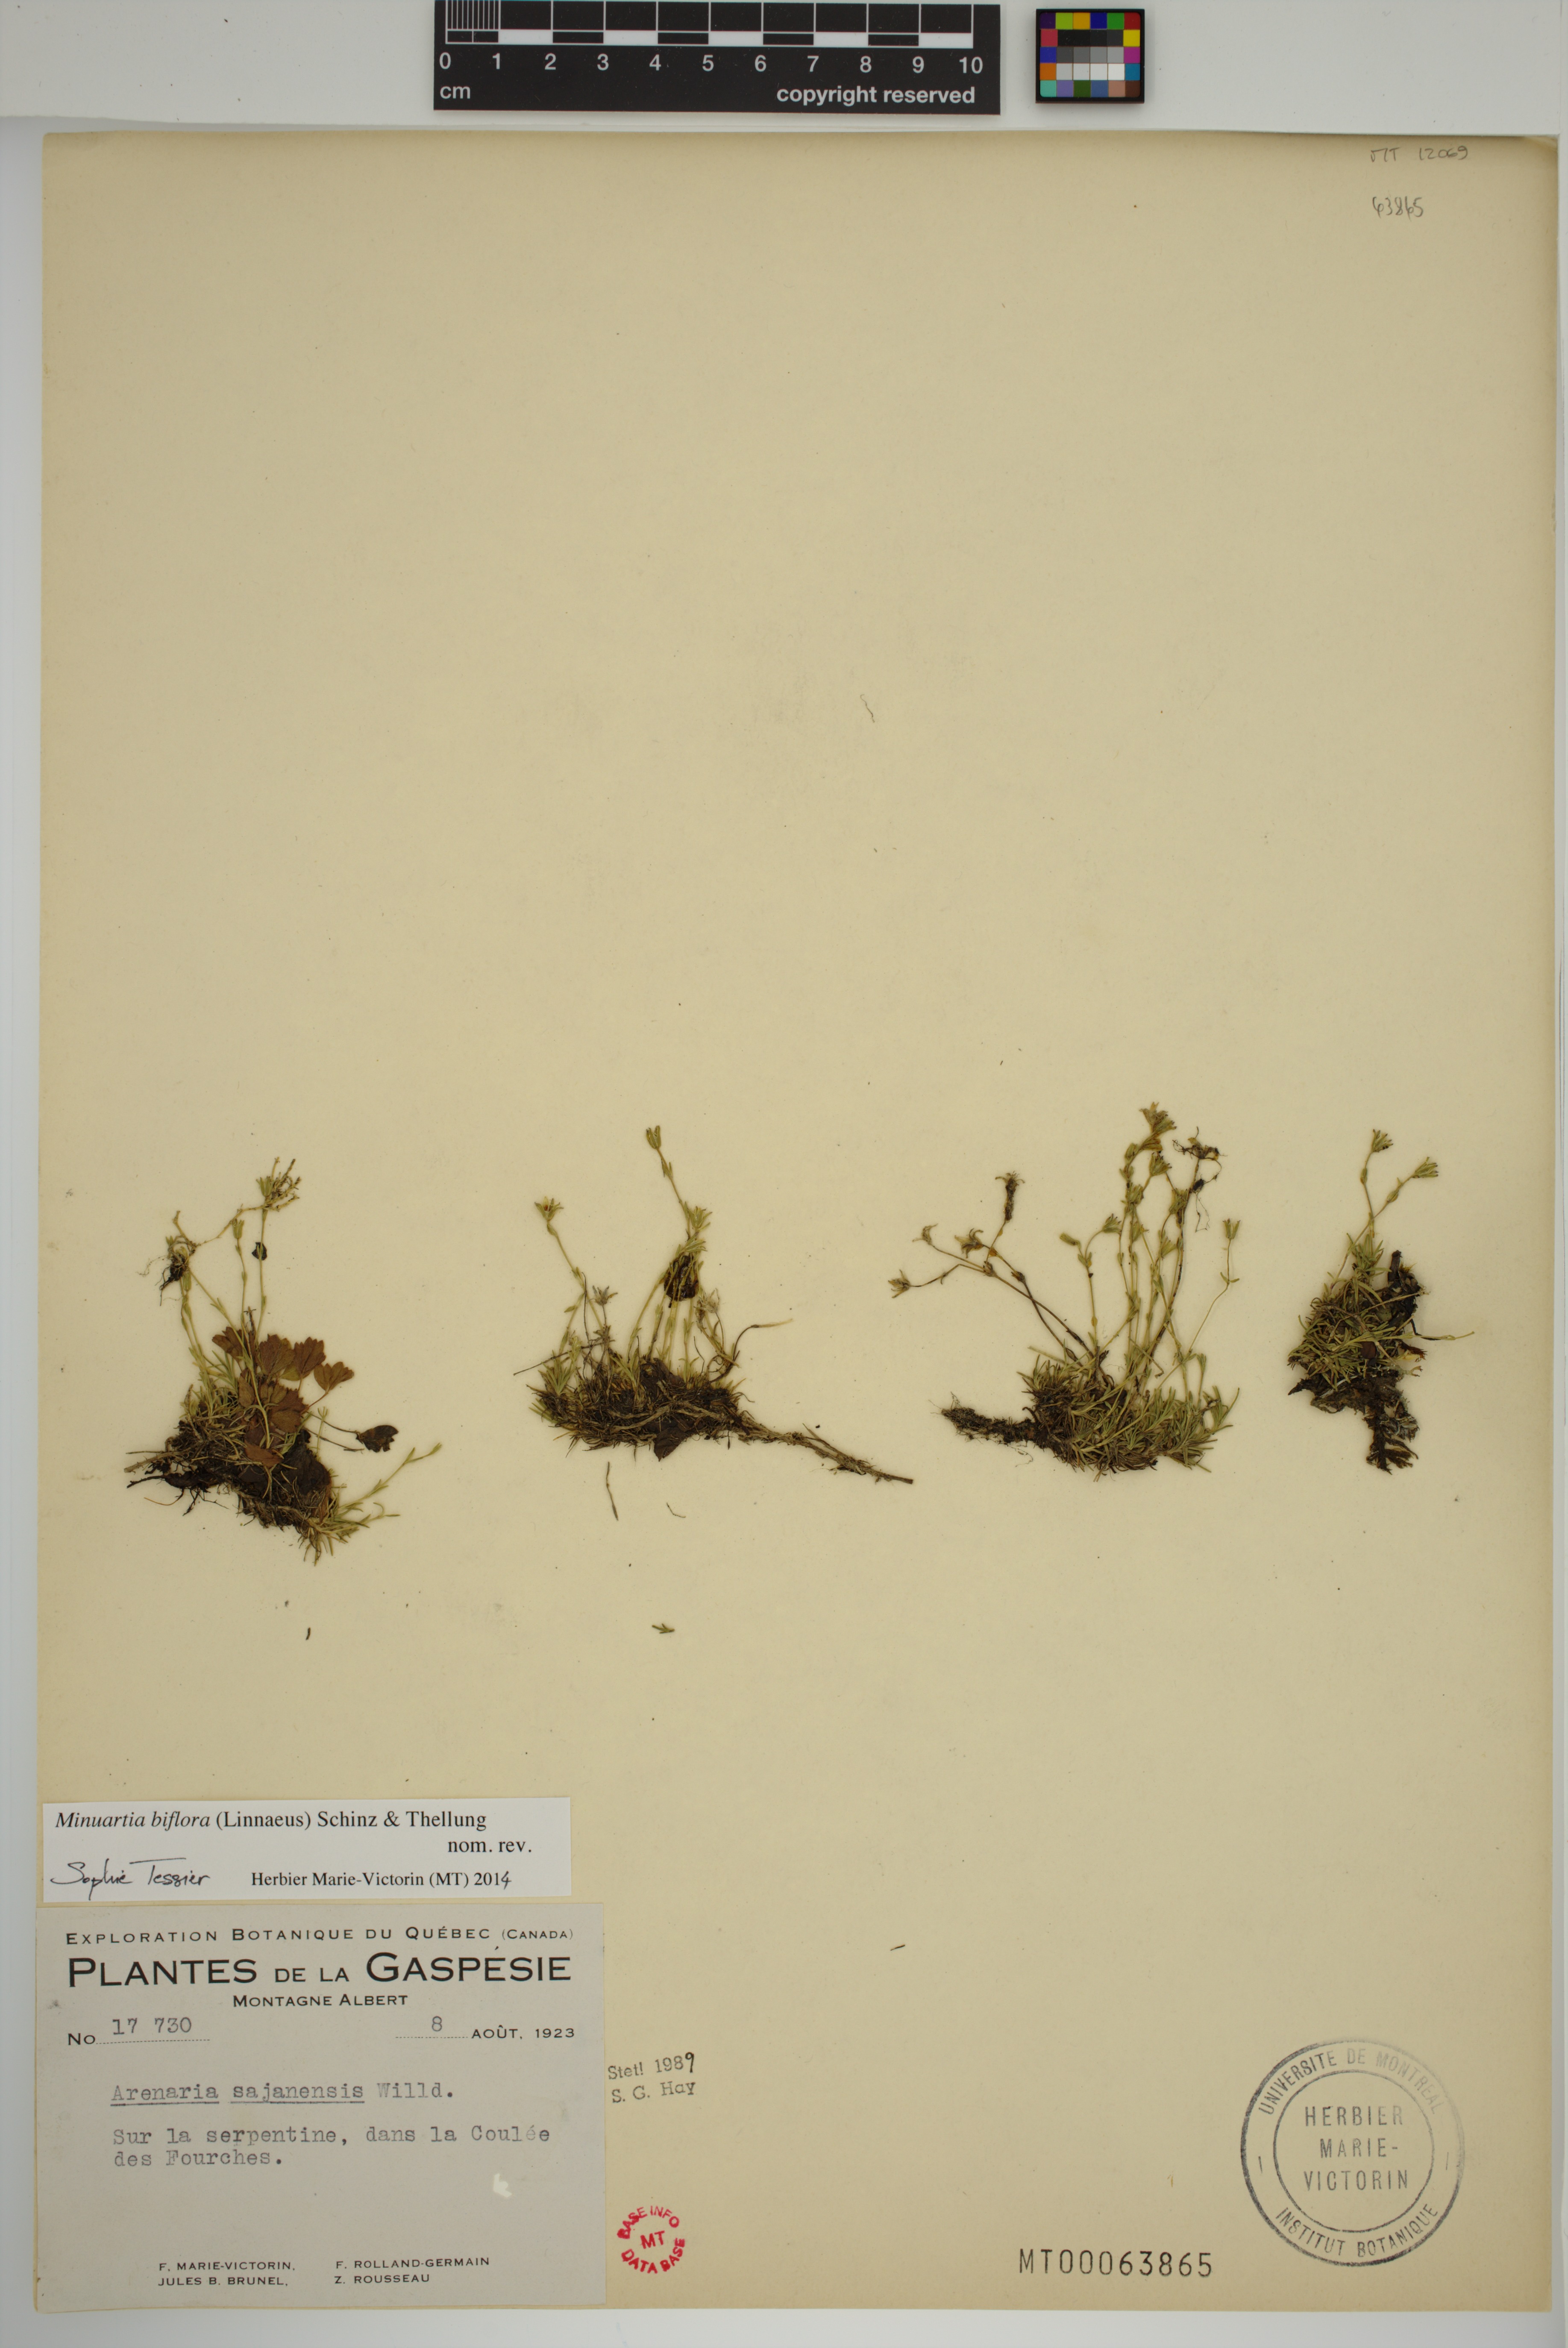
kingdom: Plantae
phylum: Tracheophyta
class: Magnoliopsida
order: Caryophyllales
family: Caryophyllaceae
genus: Cherleria
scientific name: Cherleria biflora
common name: Mountain sandwort
